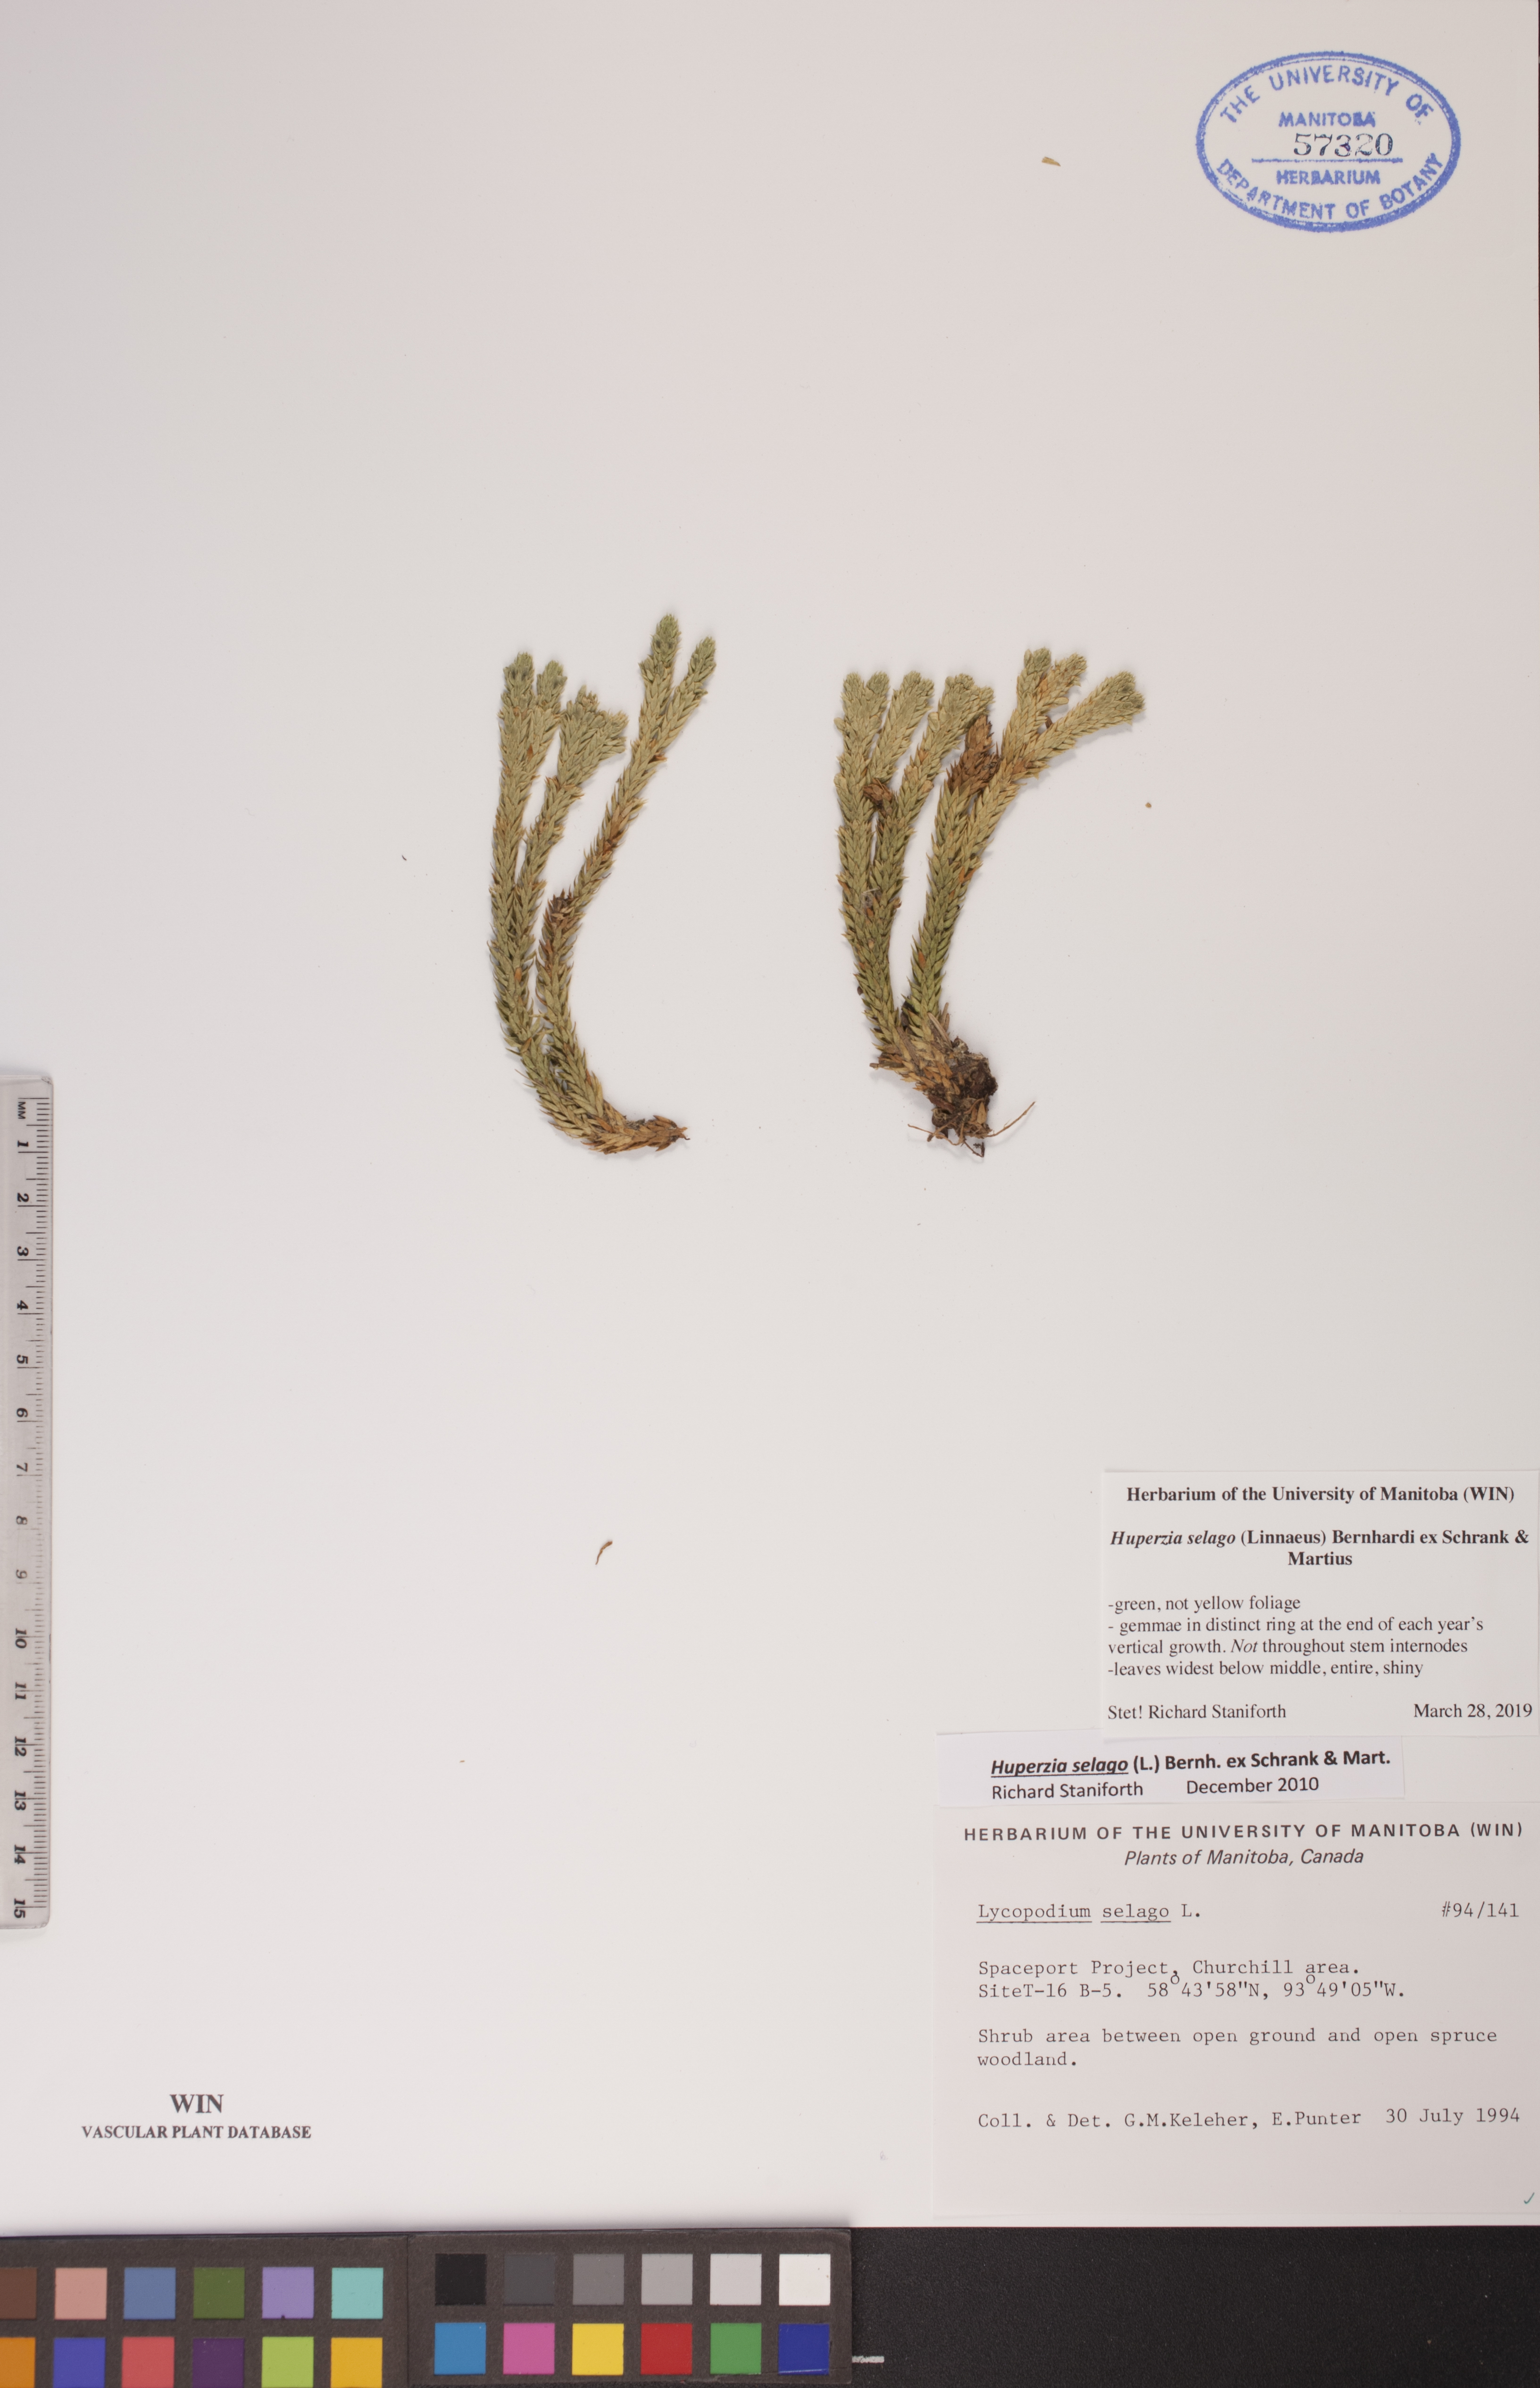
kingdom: Plantae
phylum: Tracheophyta
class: Lycopodiopsida
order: Lycopodiales
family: Lycopodiaceae
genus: Huperzia
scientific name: Huperzia selago
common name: Northern firmoss
